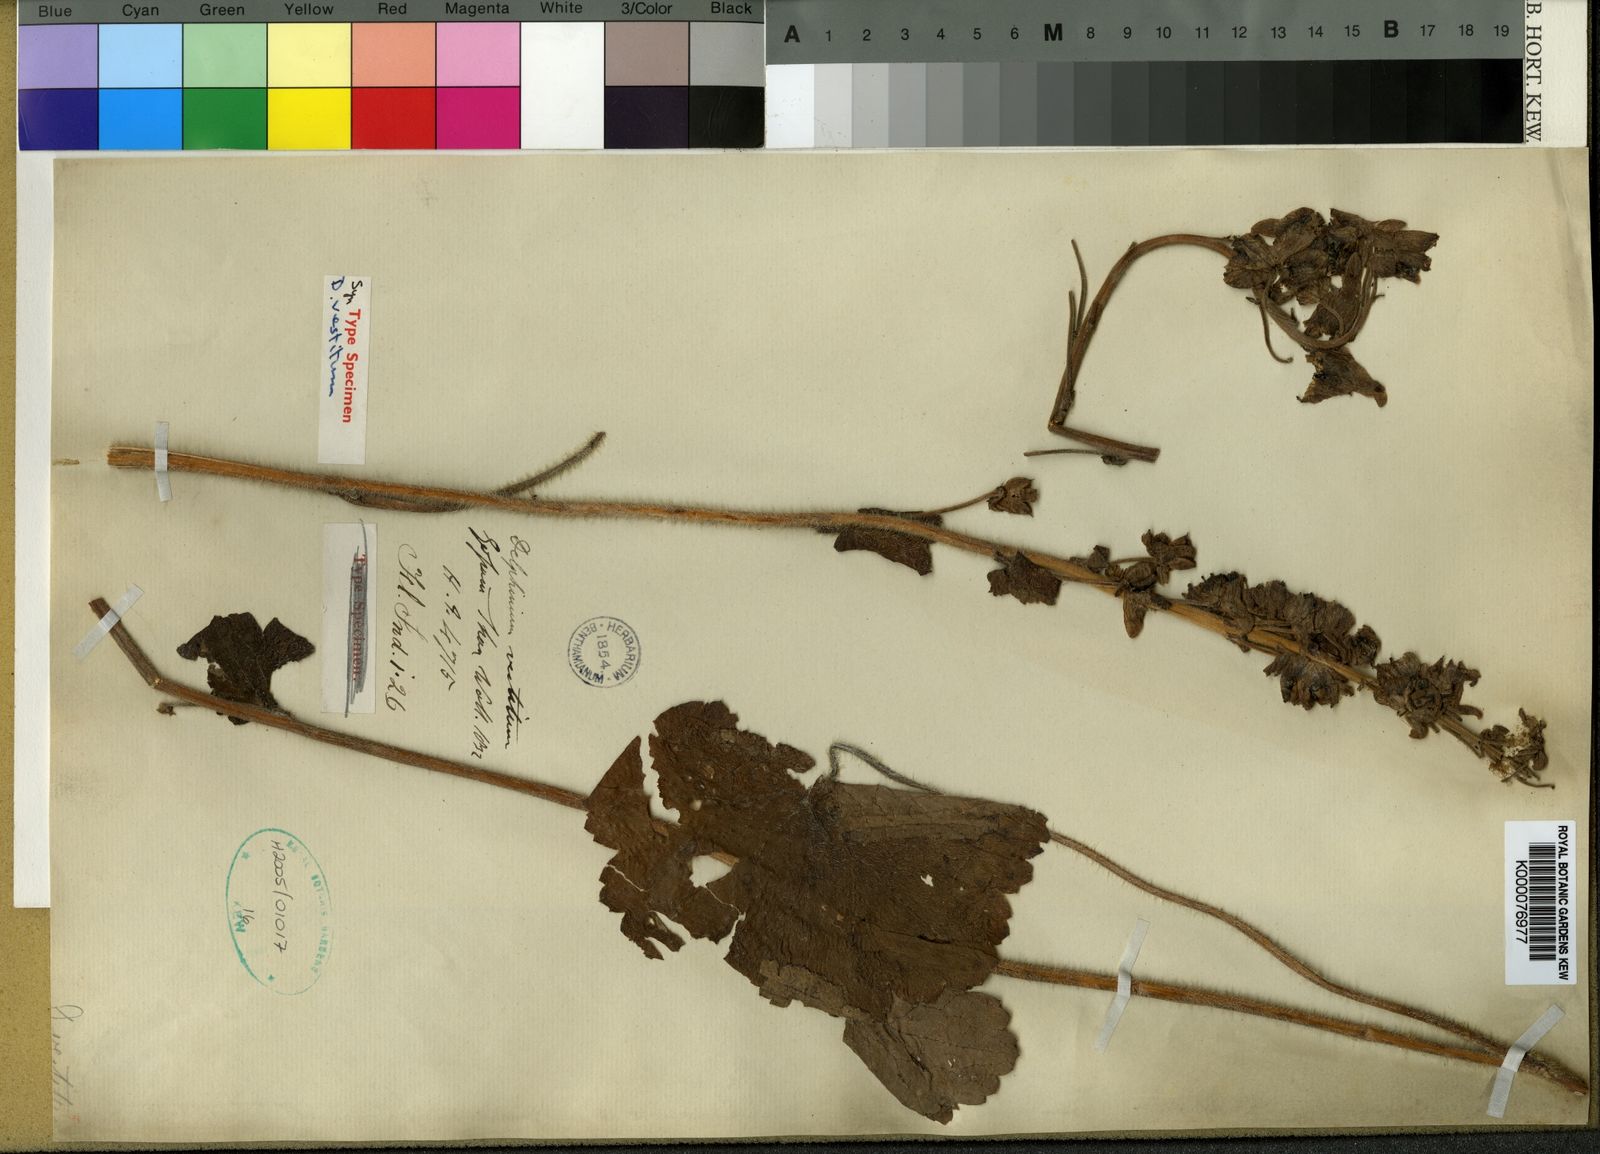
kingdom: Plantae
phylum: Tracheophyta
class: Magnoliopsida
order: Ranunculales
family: Ranunculaceae
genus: Delphinium
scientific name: Delphinium
